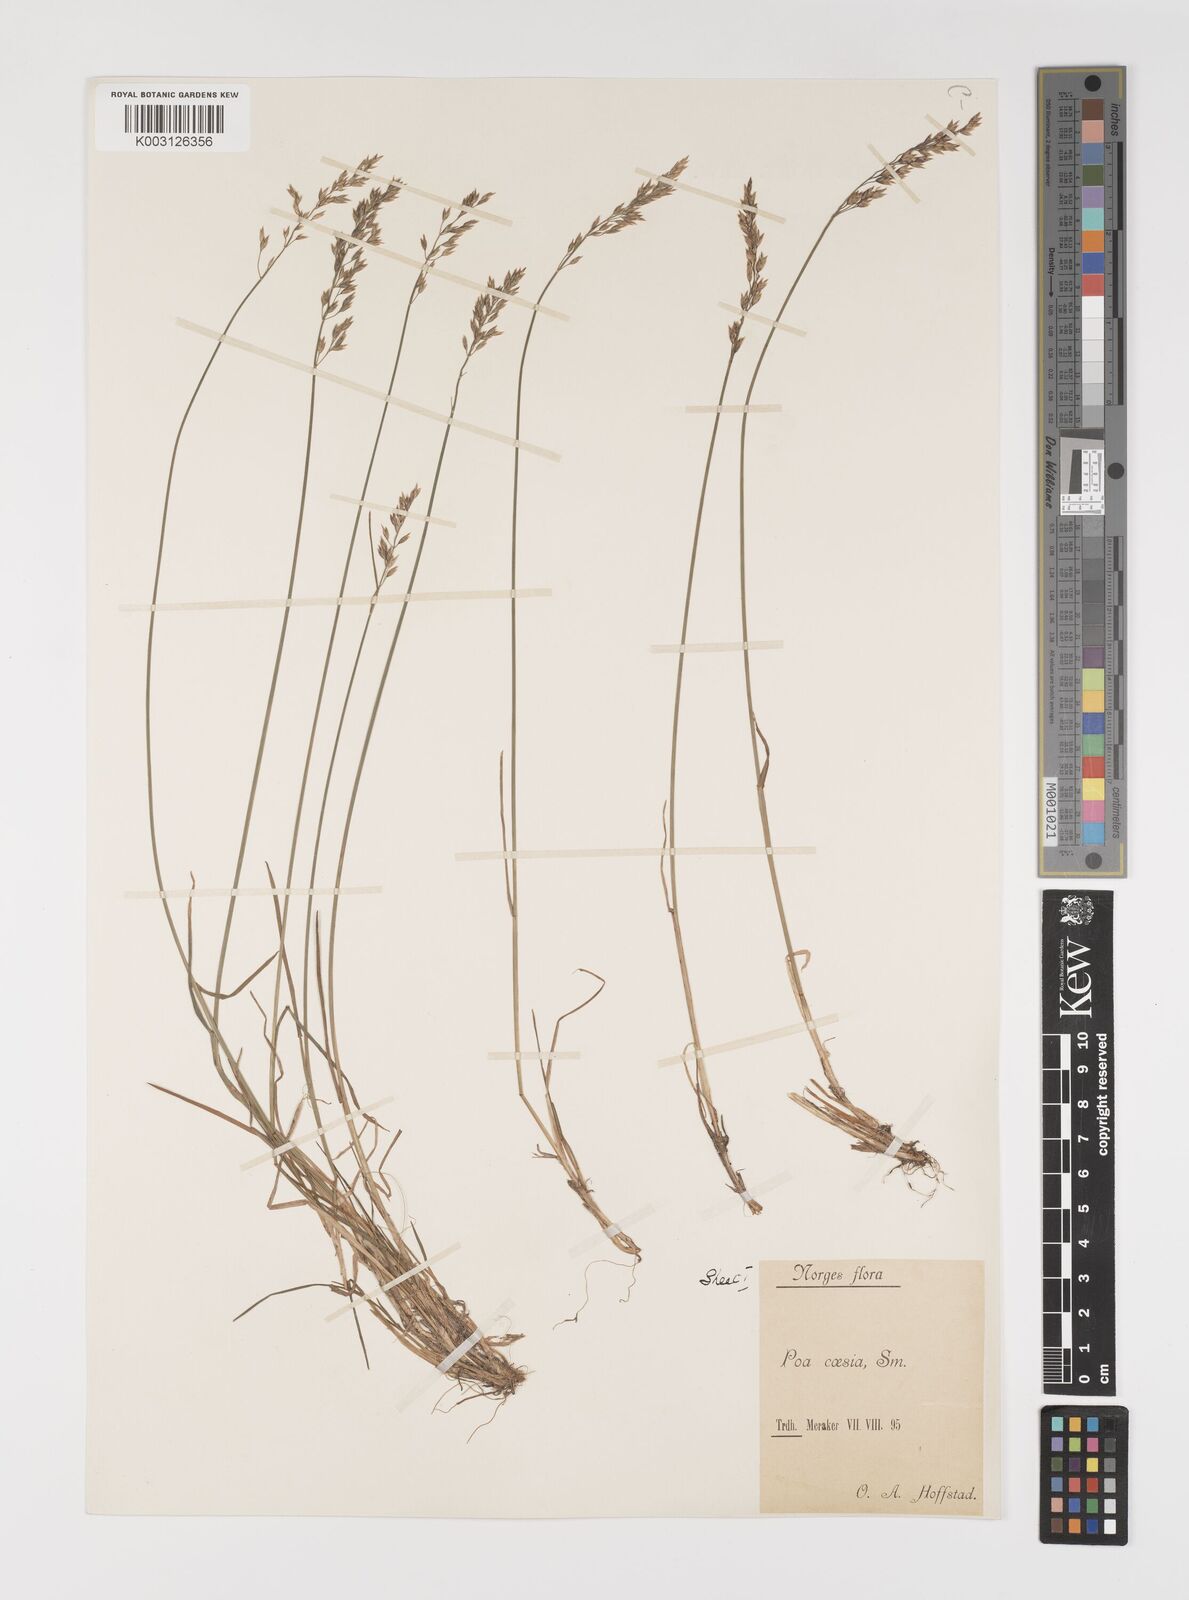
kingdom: Plantae
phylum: Tracheophyta
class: Liliopsida
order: Poales
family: Poaceae
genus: Poa
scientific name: Poa glauca
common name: Glaucous bluegrass
